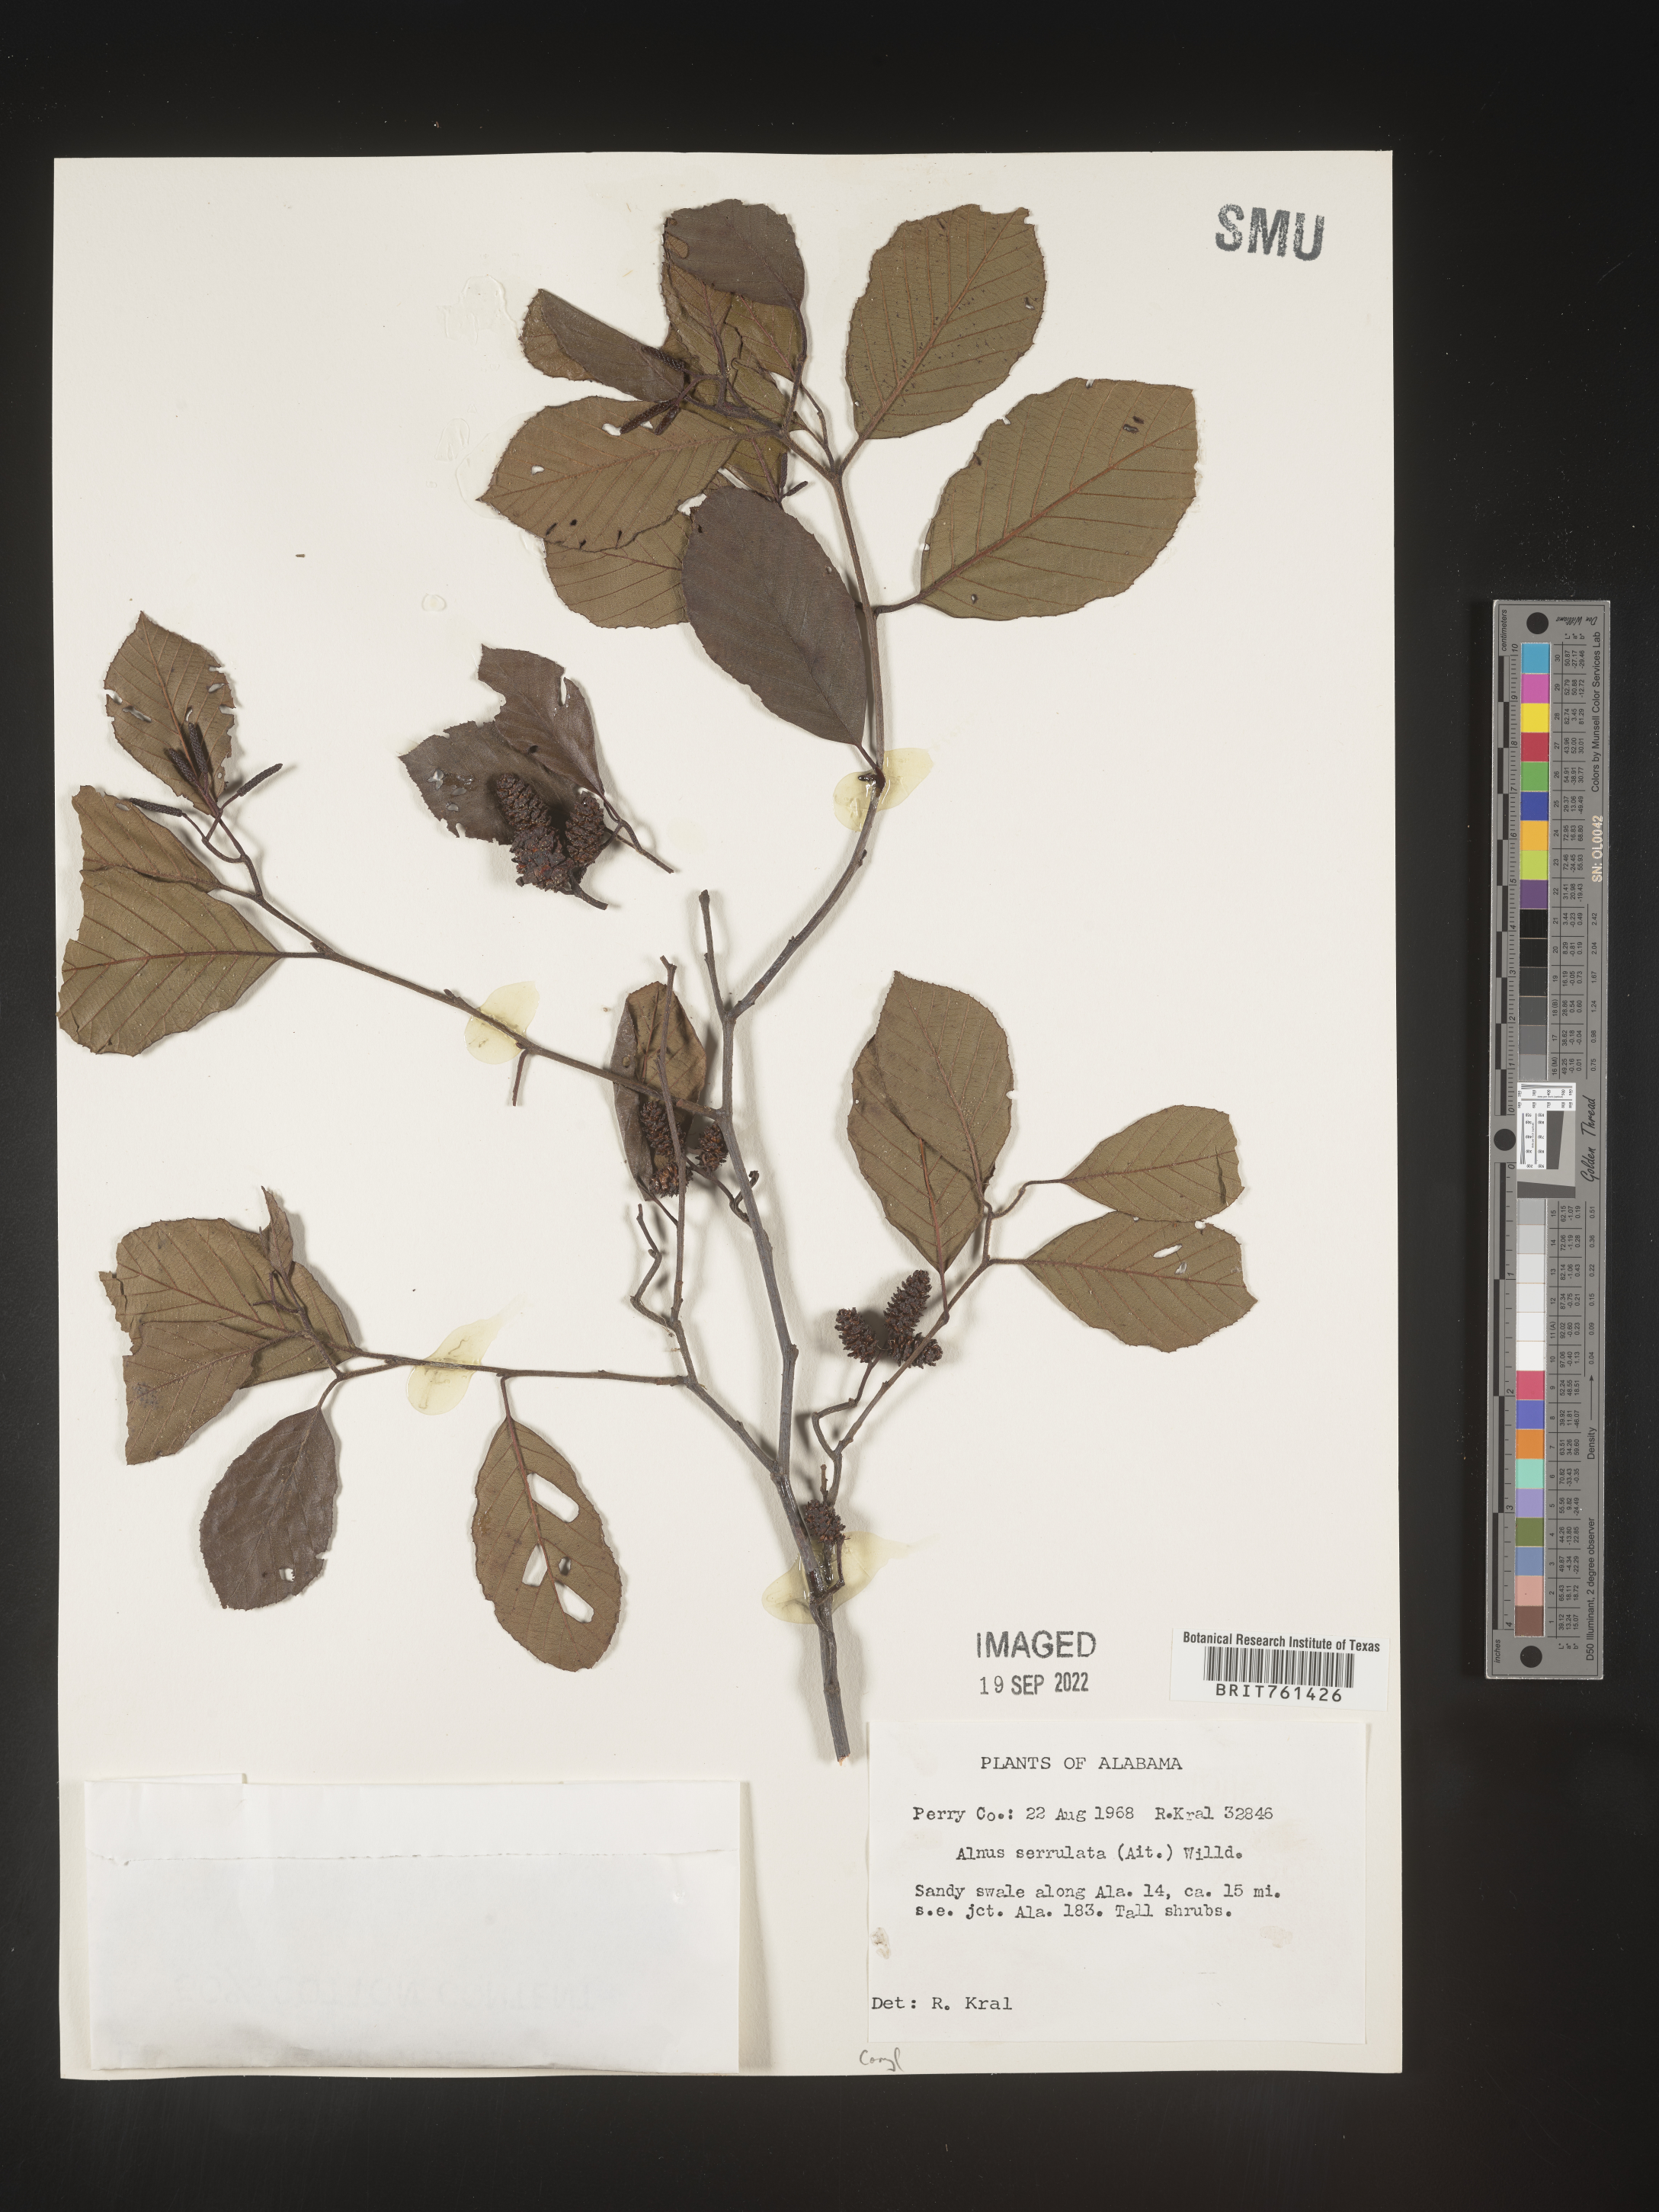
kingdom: Plantae
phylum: Tracheophyta
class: Magnoliopsida
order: Fagales
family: Betulaceae
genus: Alnus
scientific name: Alnus serrulata
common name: Hazel alder
